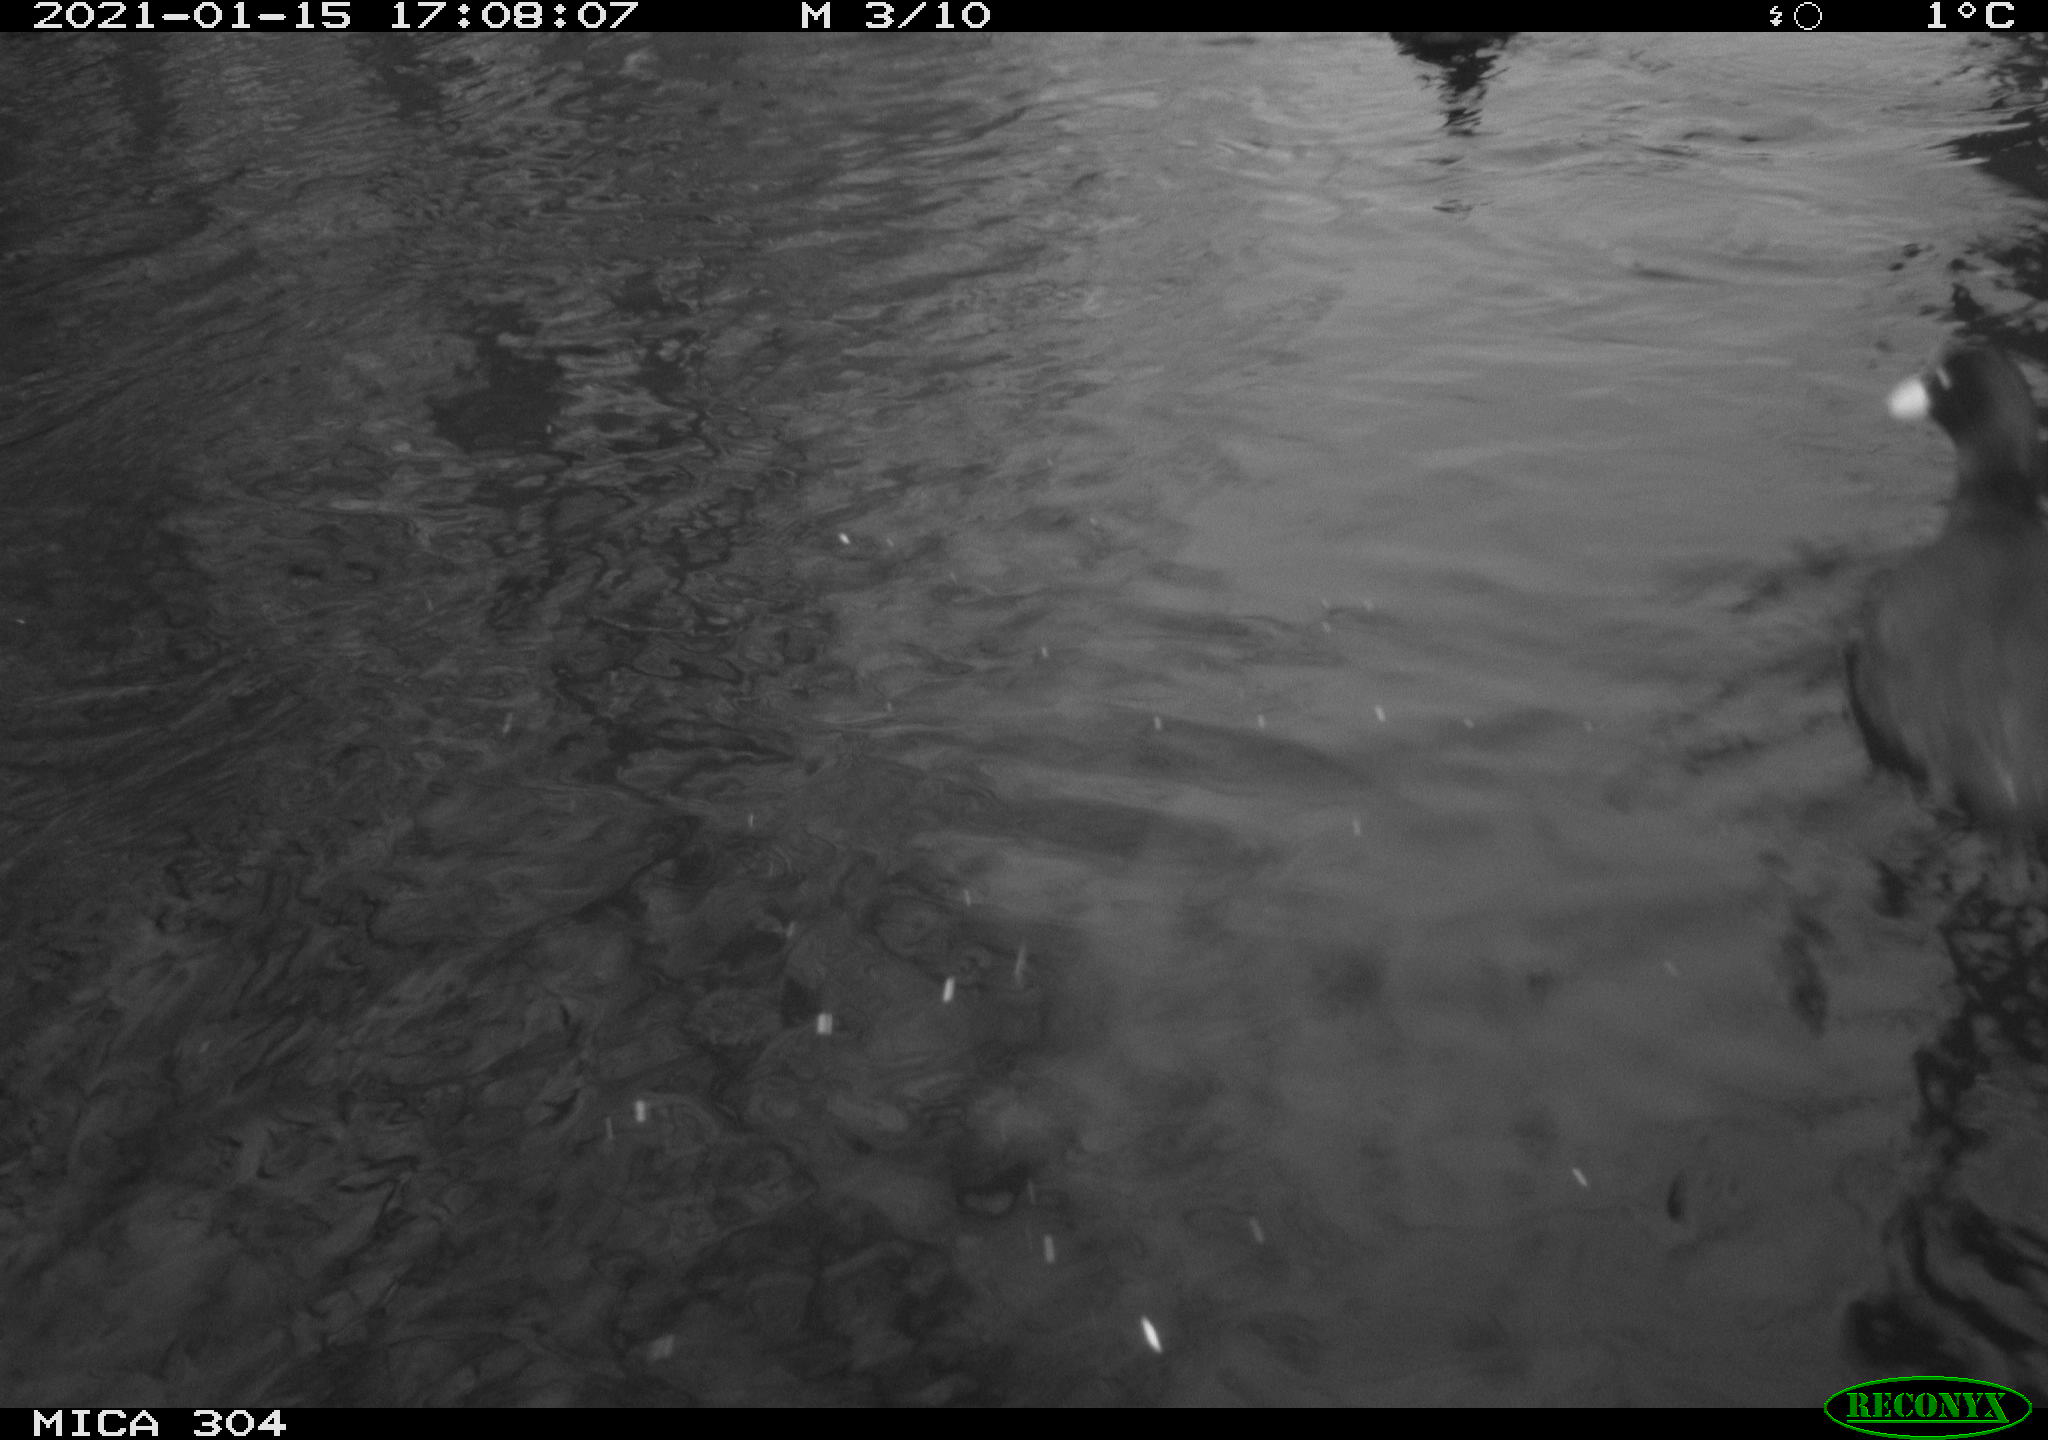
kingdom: Animalia
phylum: Chordata
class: Aves
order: Gruiformes
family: Rallidae
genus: Fulica
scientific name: Fulica atra
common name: Eurasian coot
